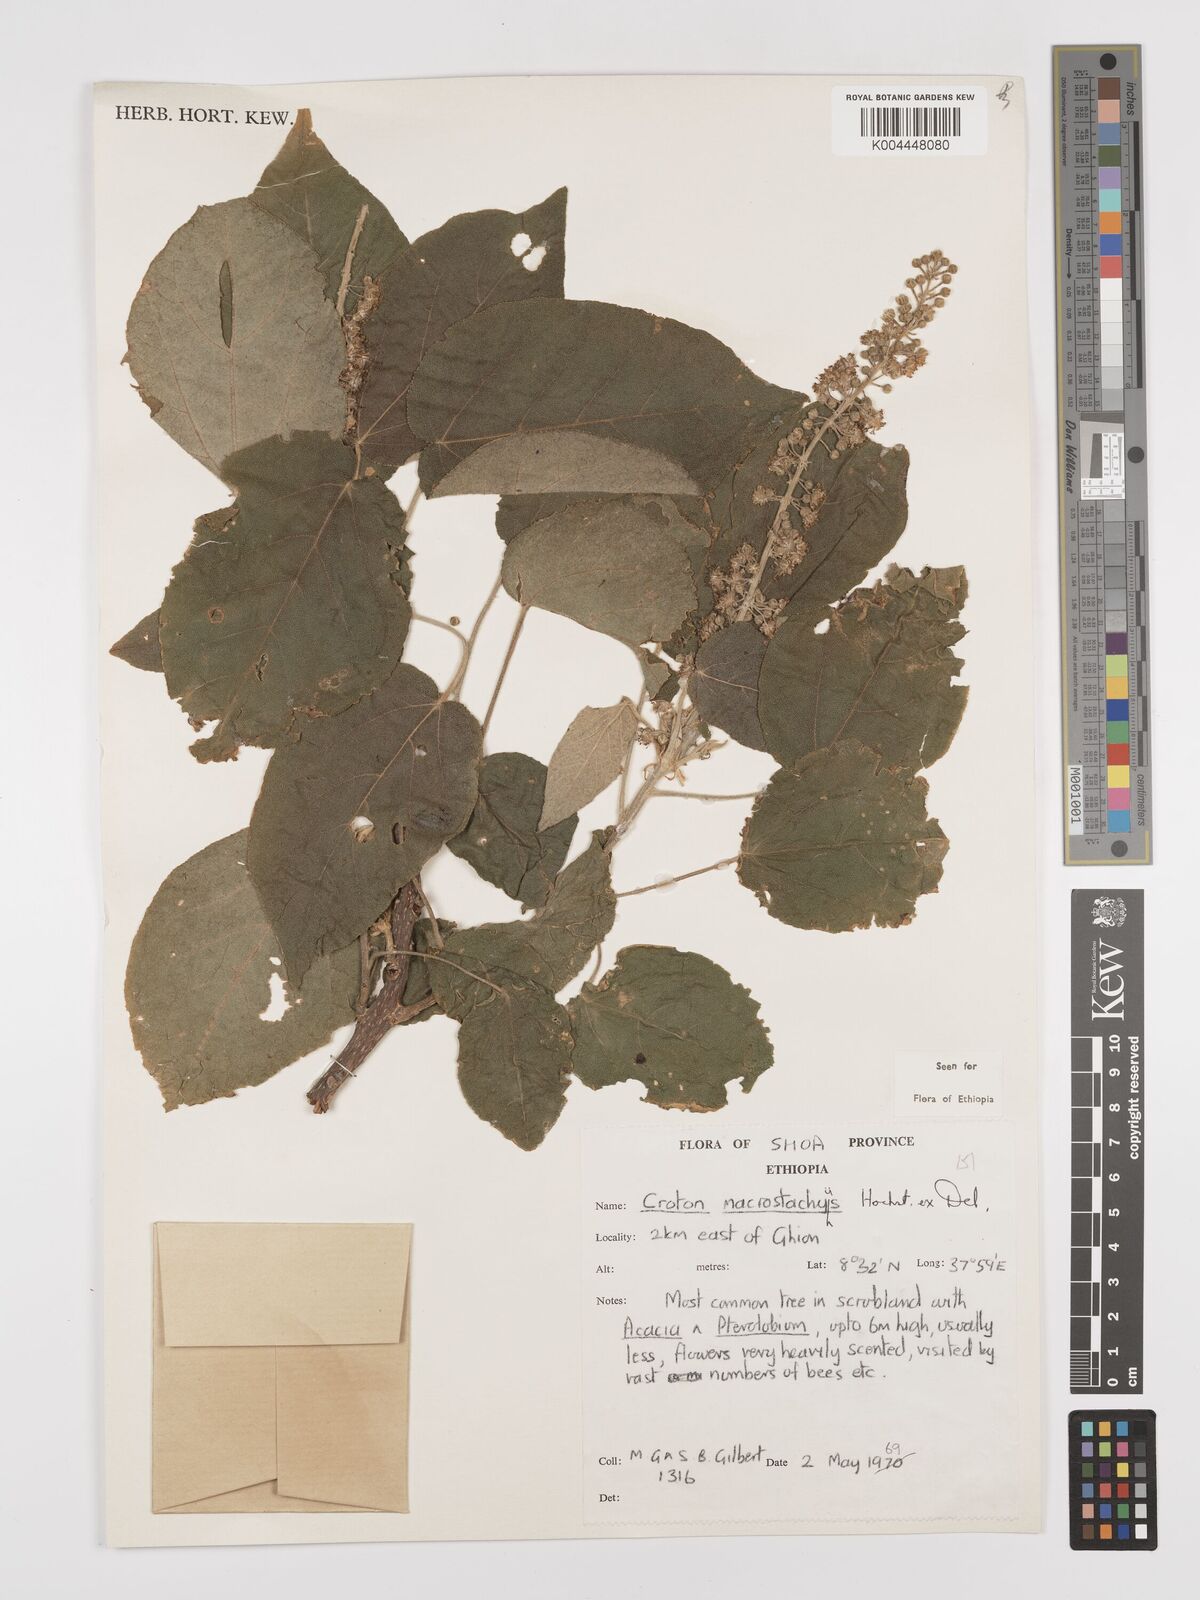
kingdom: Plantae
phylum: Tracheophyta
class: Magnoliopsida
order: Malpighiales
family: Euphorbiaceae
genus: Croton
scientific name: Croton macrostachyus
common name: Mutundu
